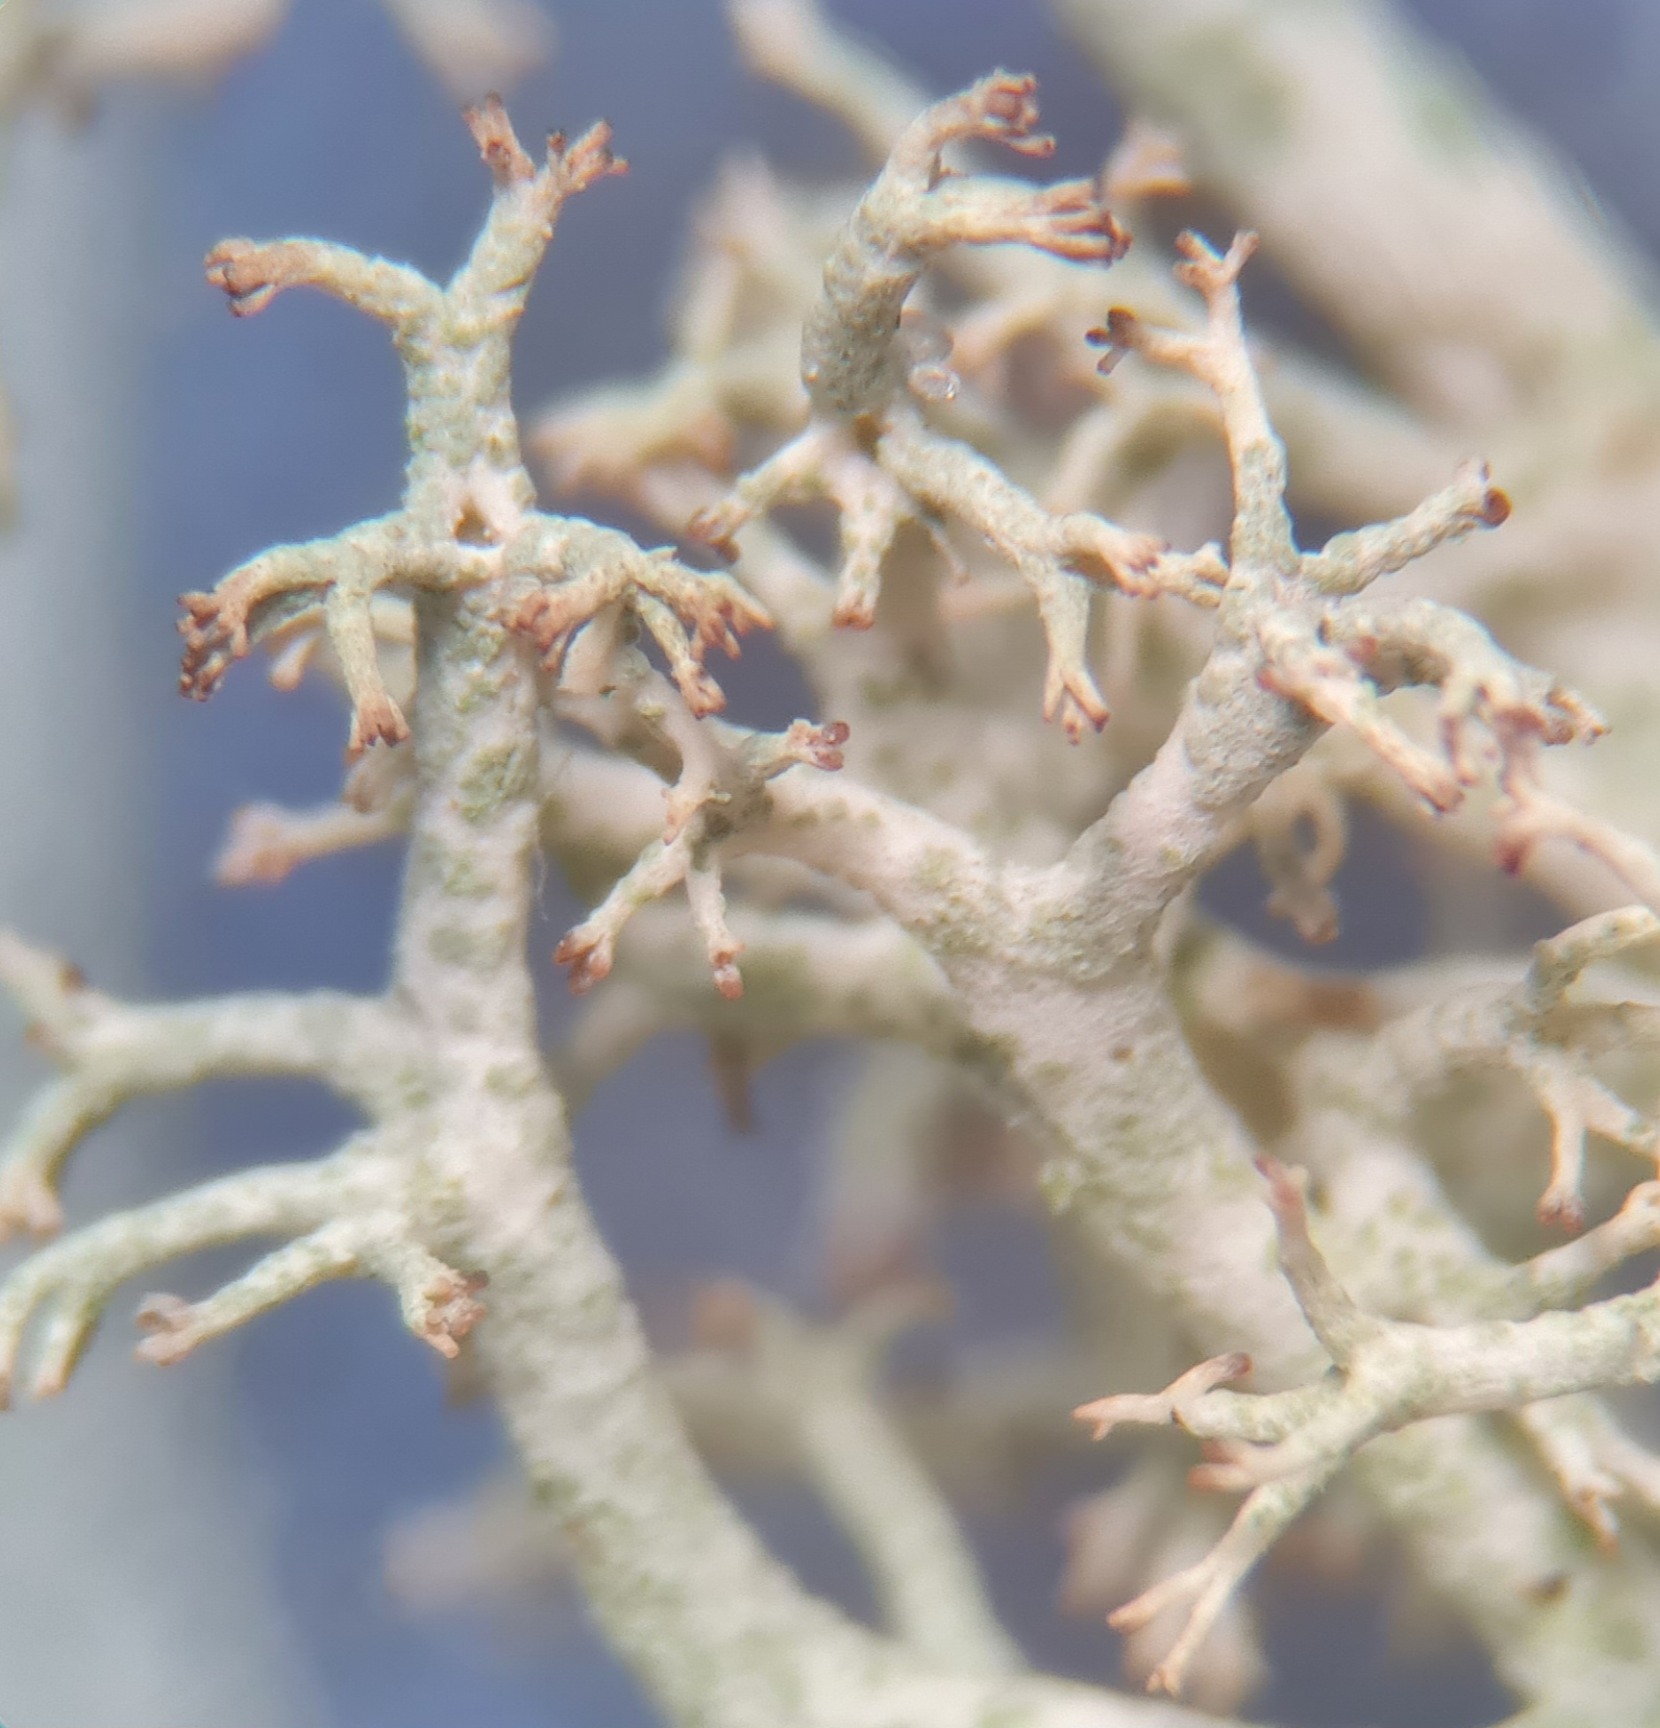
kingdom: Fungi
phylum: Ascomycota
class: Lecanoromycetes
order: Lecanorales
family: Cladoniaceae
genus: Cladonia
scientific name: Cladonia portentosa
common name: Hede-rensdyrlav
